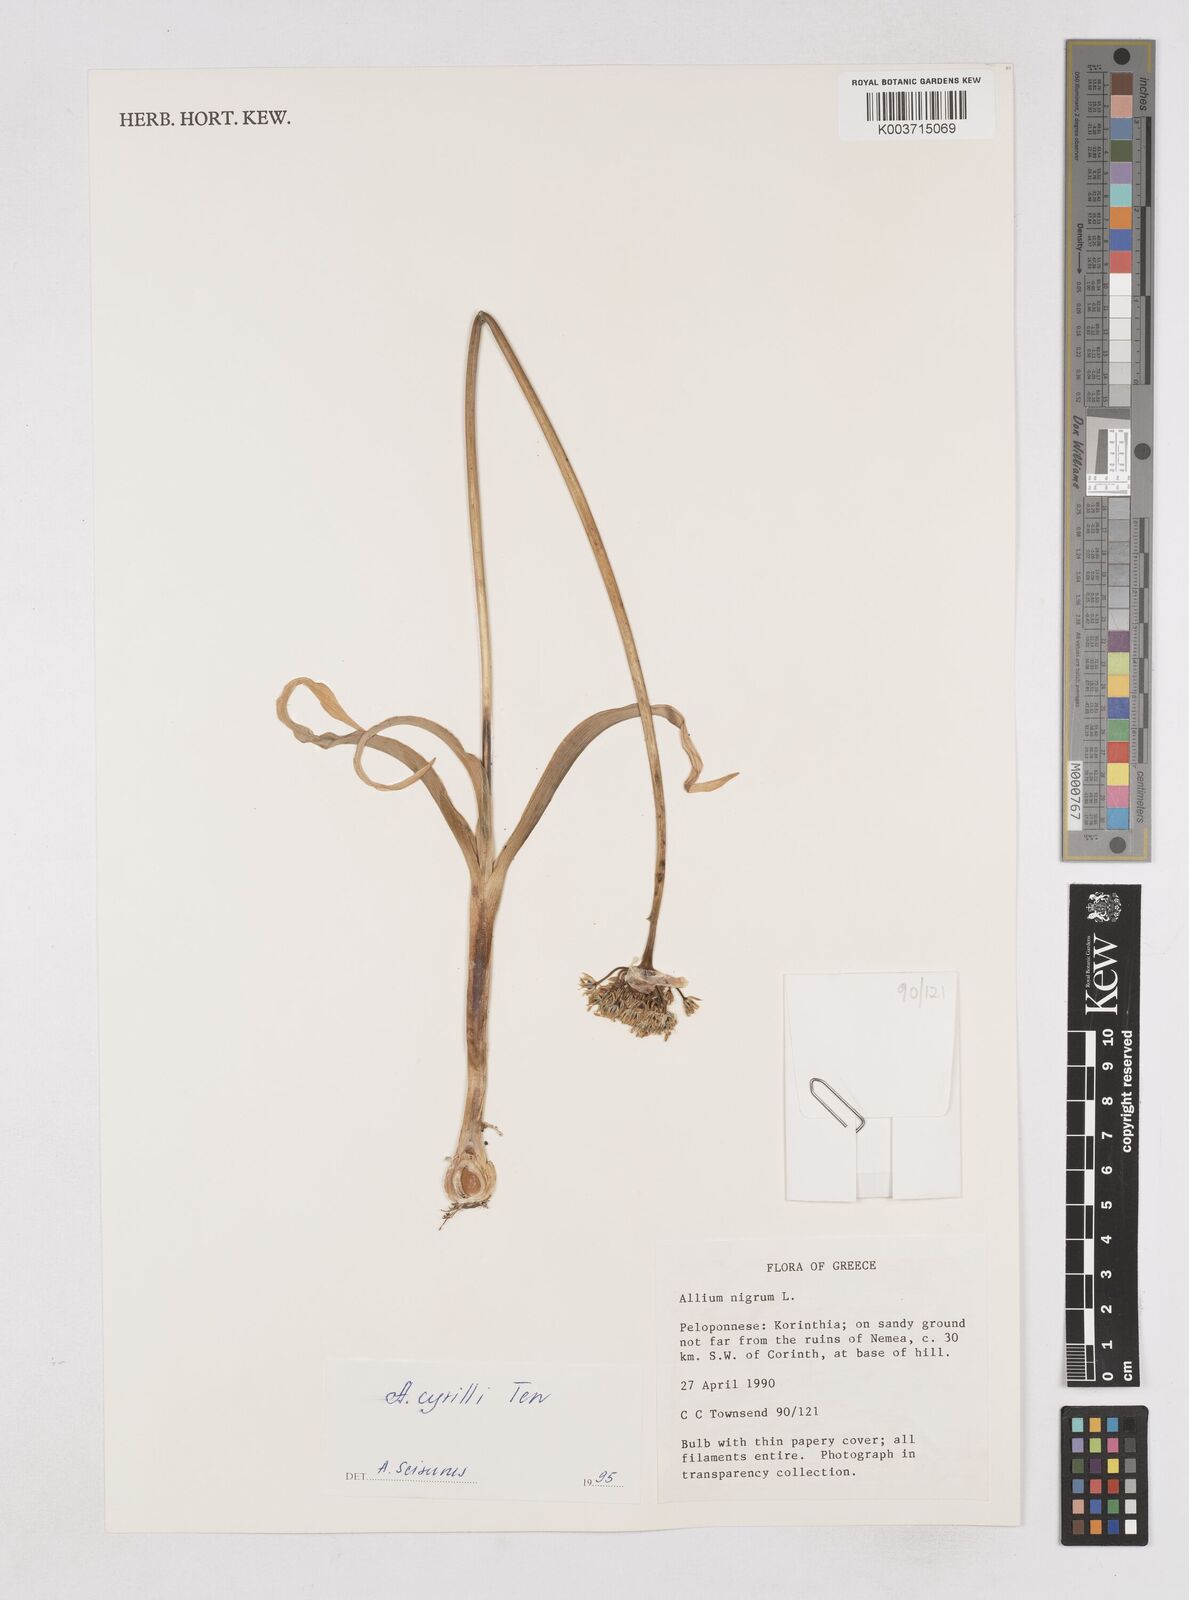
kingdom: Plantae
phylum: Tracheophyta
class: Liliopsida
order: Asparagales
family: Amaryllidaceae
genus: Allium
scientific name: Allium cyrilli
